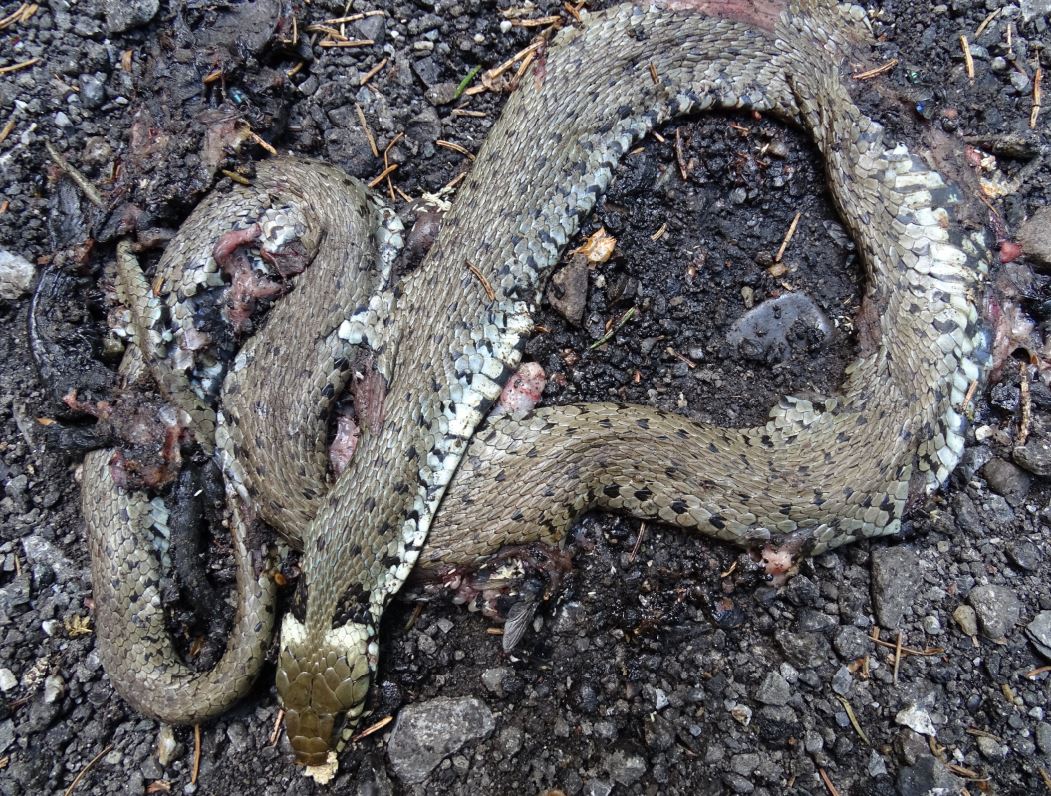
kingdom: Animalia
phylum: Chordata
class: Squamata
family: Colubridae
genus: Natrix
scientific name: Natrix natrix
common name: Grass snake
